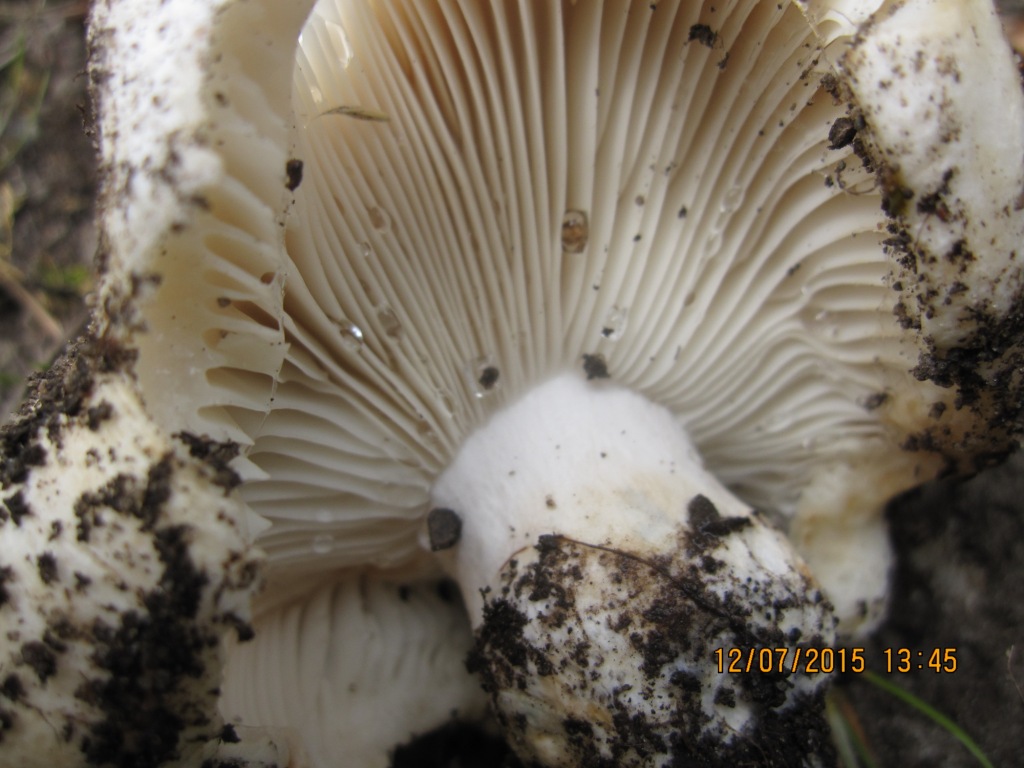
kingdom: Fungi
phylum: Basidiomycota
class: Agaricomycetes
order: Russulales
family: Russulaceae
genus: Russula
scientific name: Russula delica
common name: almindelig tragt-skørhat
